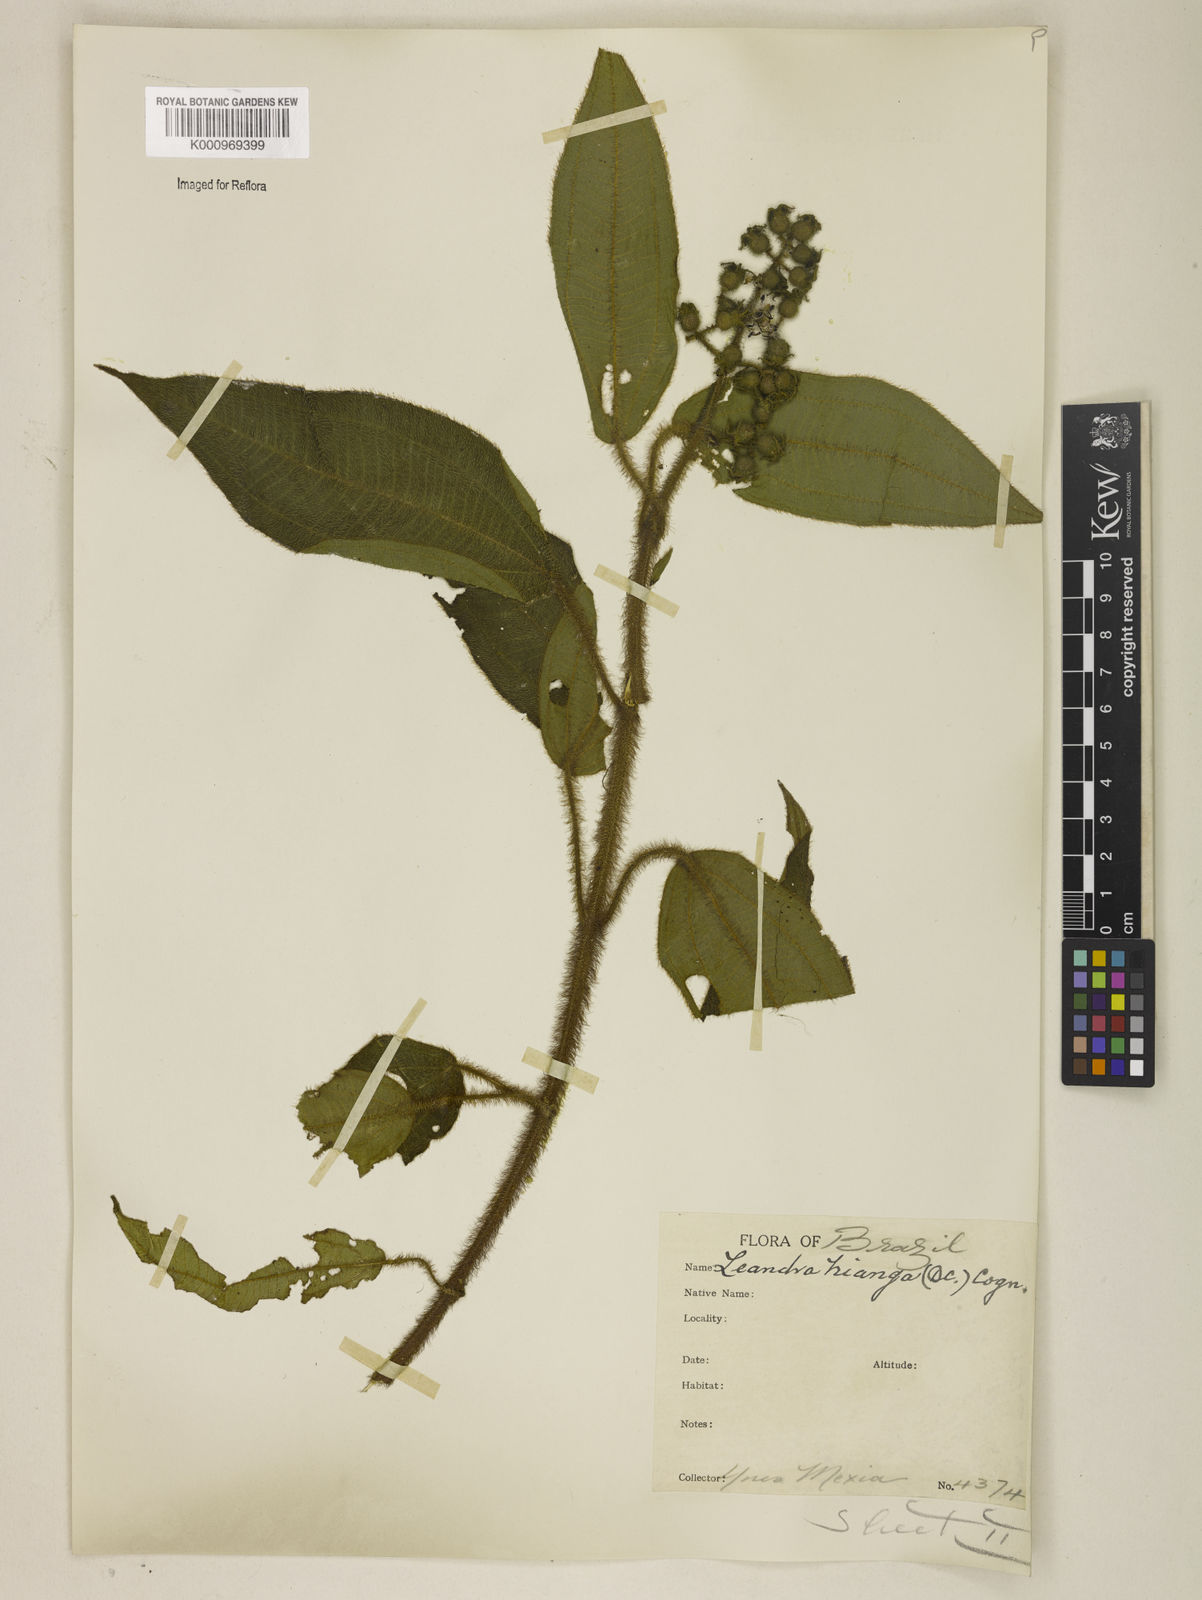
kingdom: Plantae
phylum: Tracheophyta
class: Magnoliopsida
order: Myrtales
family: Melastomataceae
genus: Miconia
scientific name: Miconia nianga
